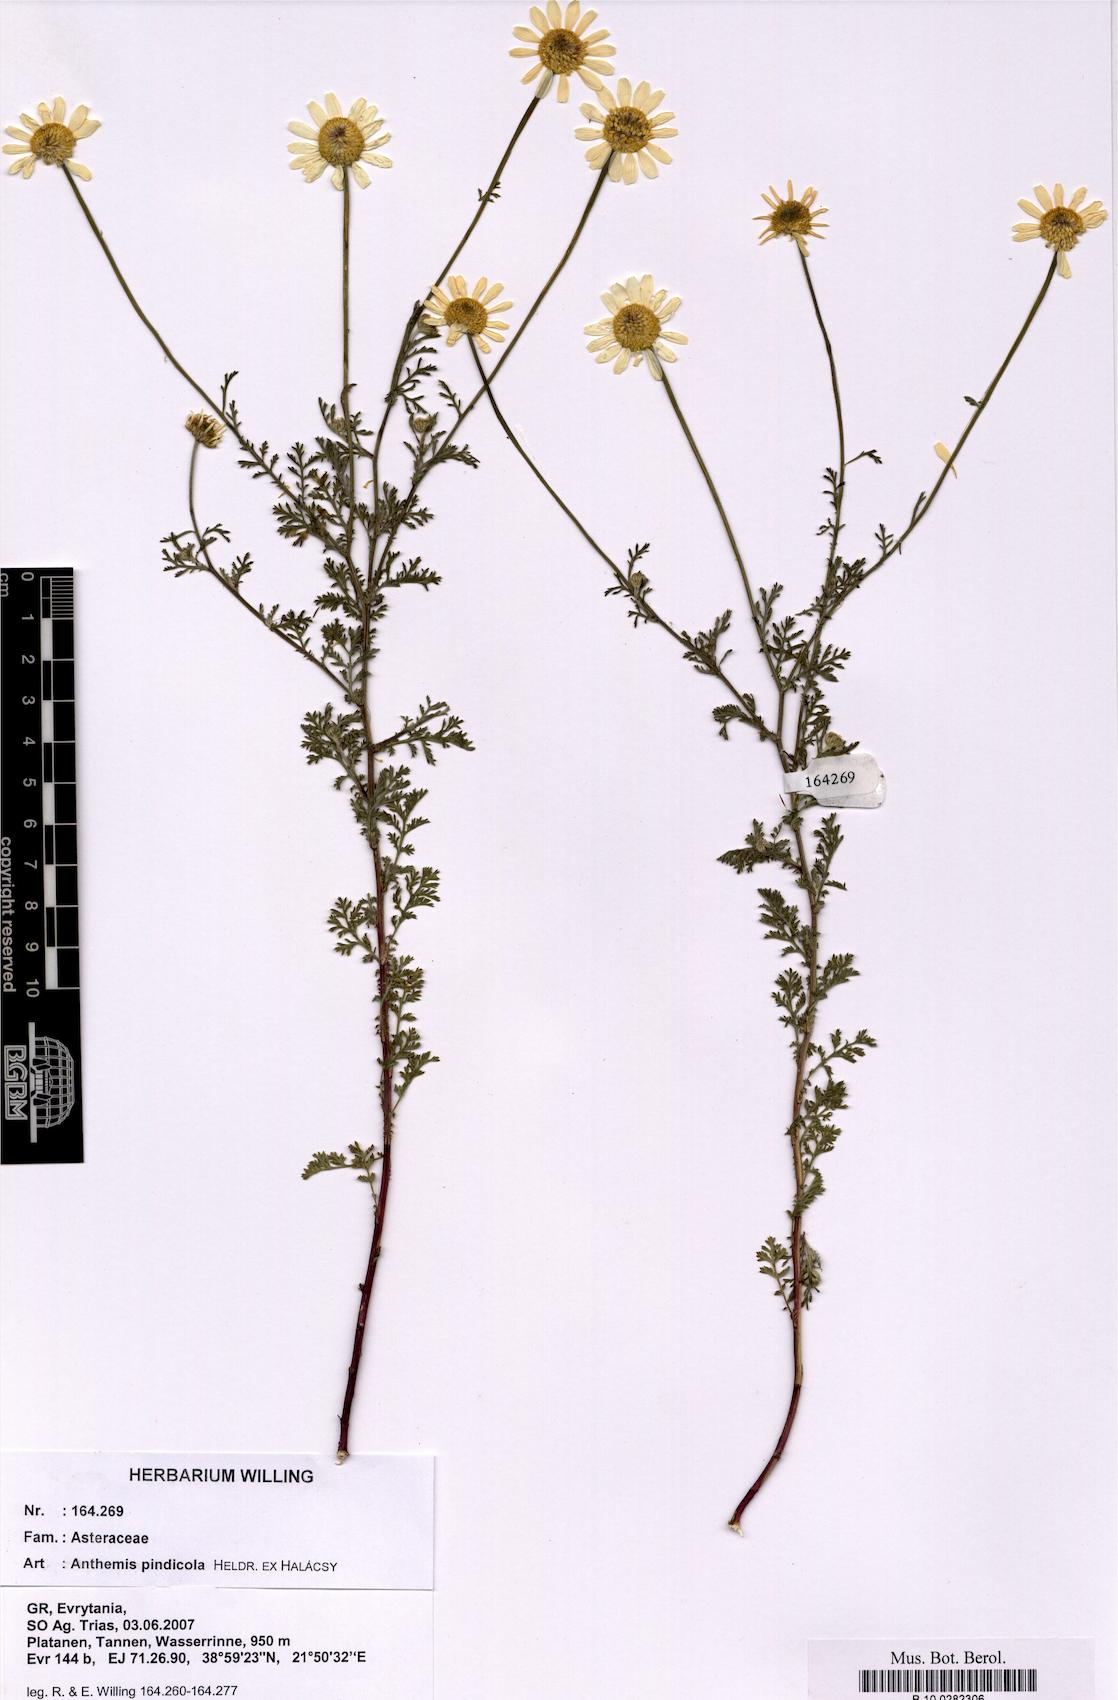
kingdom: Plantae
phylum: Tracheophyta
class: Magnoliopsida
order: Asterales
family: Asteraceae
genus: Anthemis
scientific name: Anthemis pindicola
